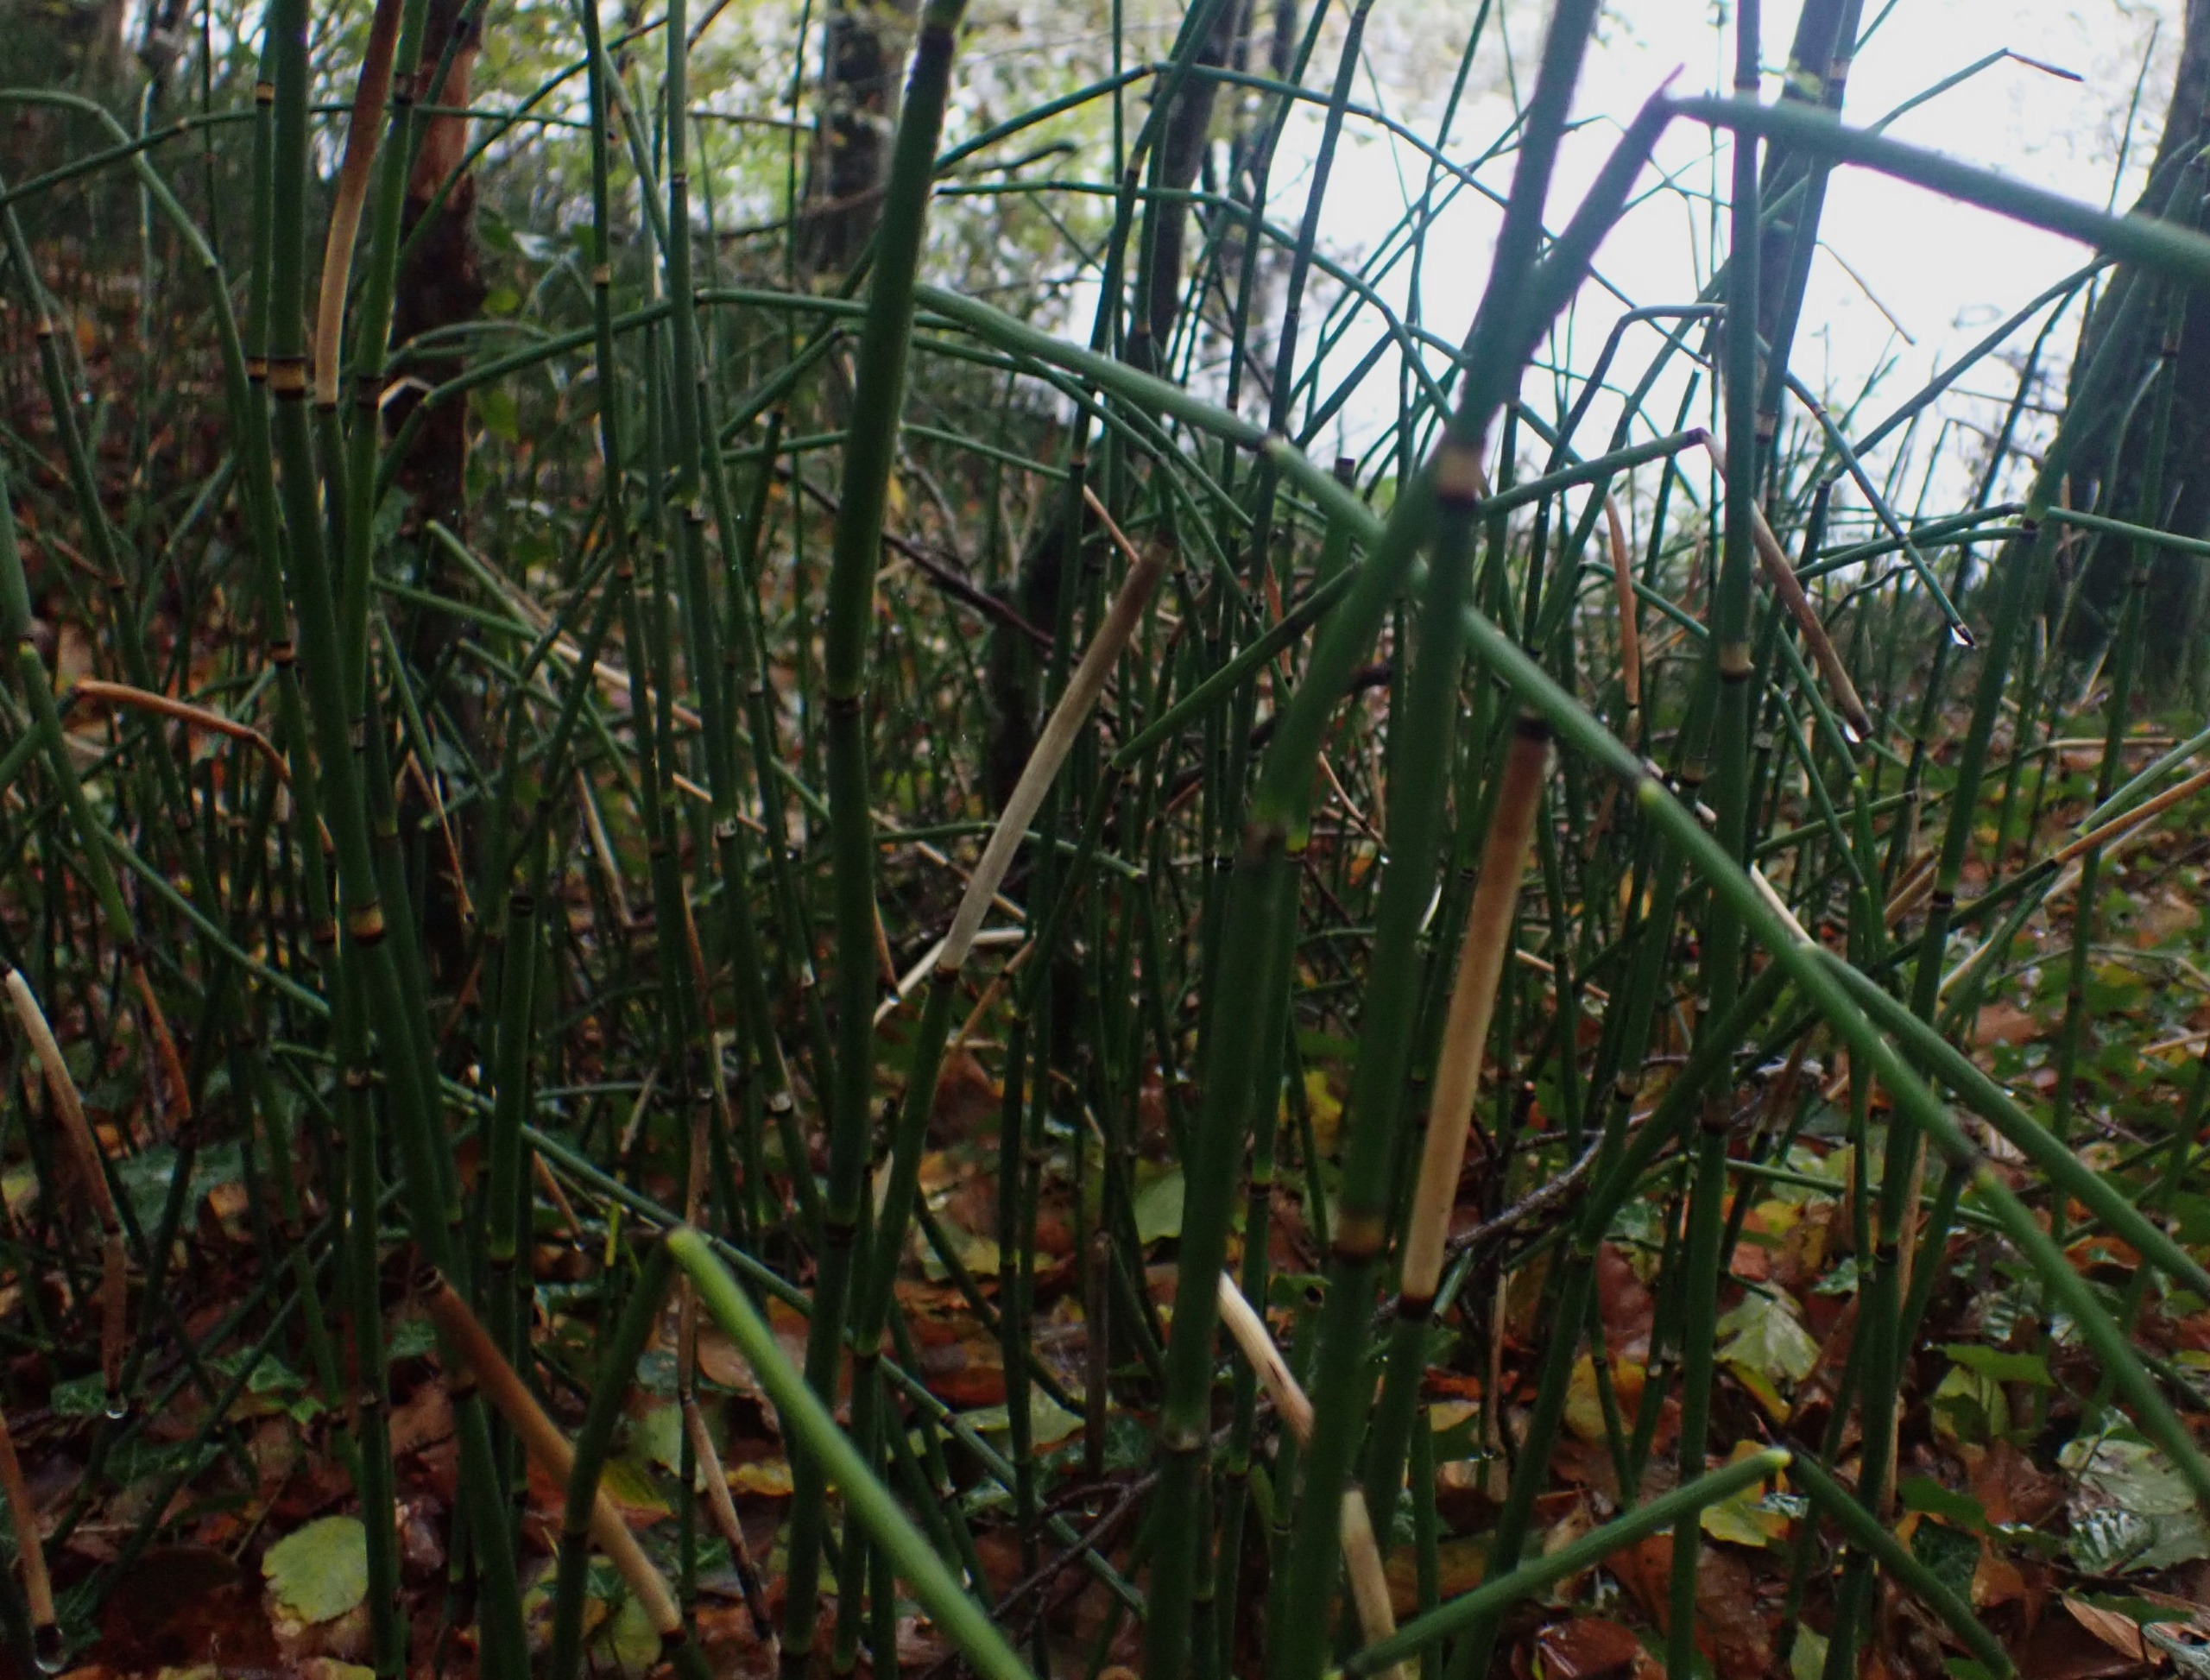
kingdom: Plantae
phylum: Tracheophyta
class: Polypodiopsida
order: Equisetales
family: Equisetaceae
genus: Equisetum
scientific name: Equisetum hyemale
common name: Skavgræs
